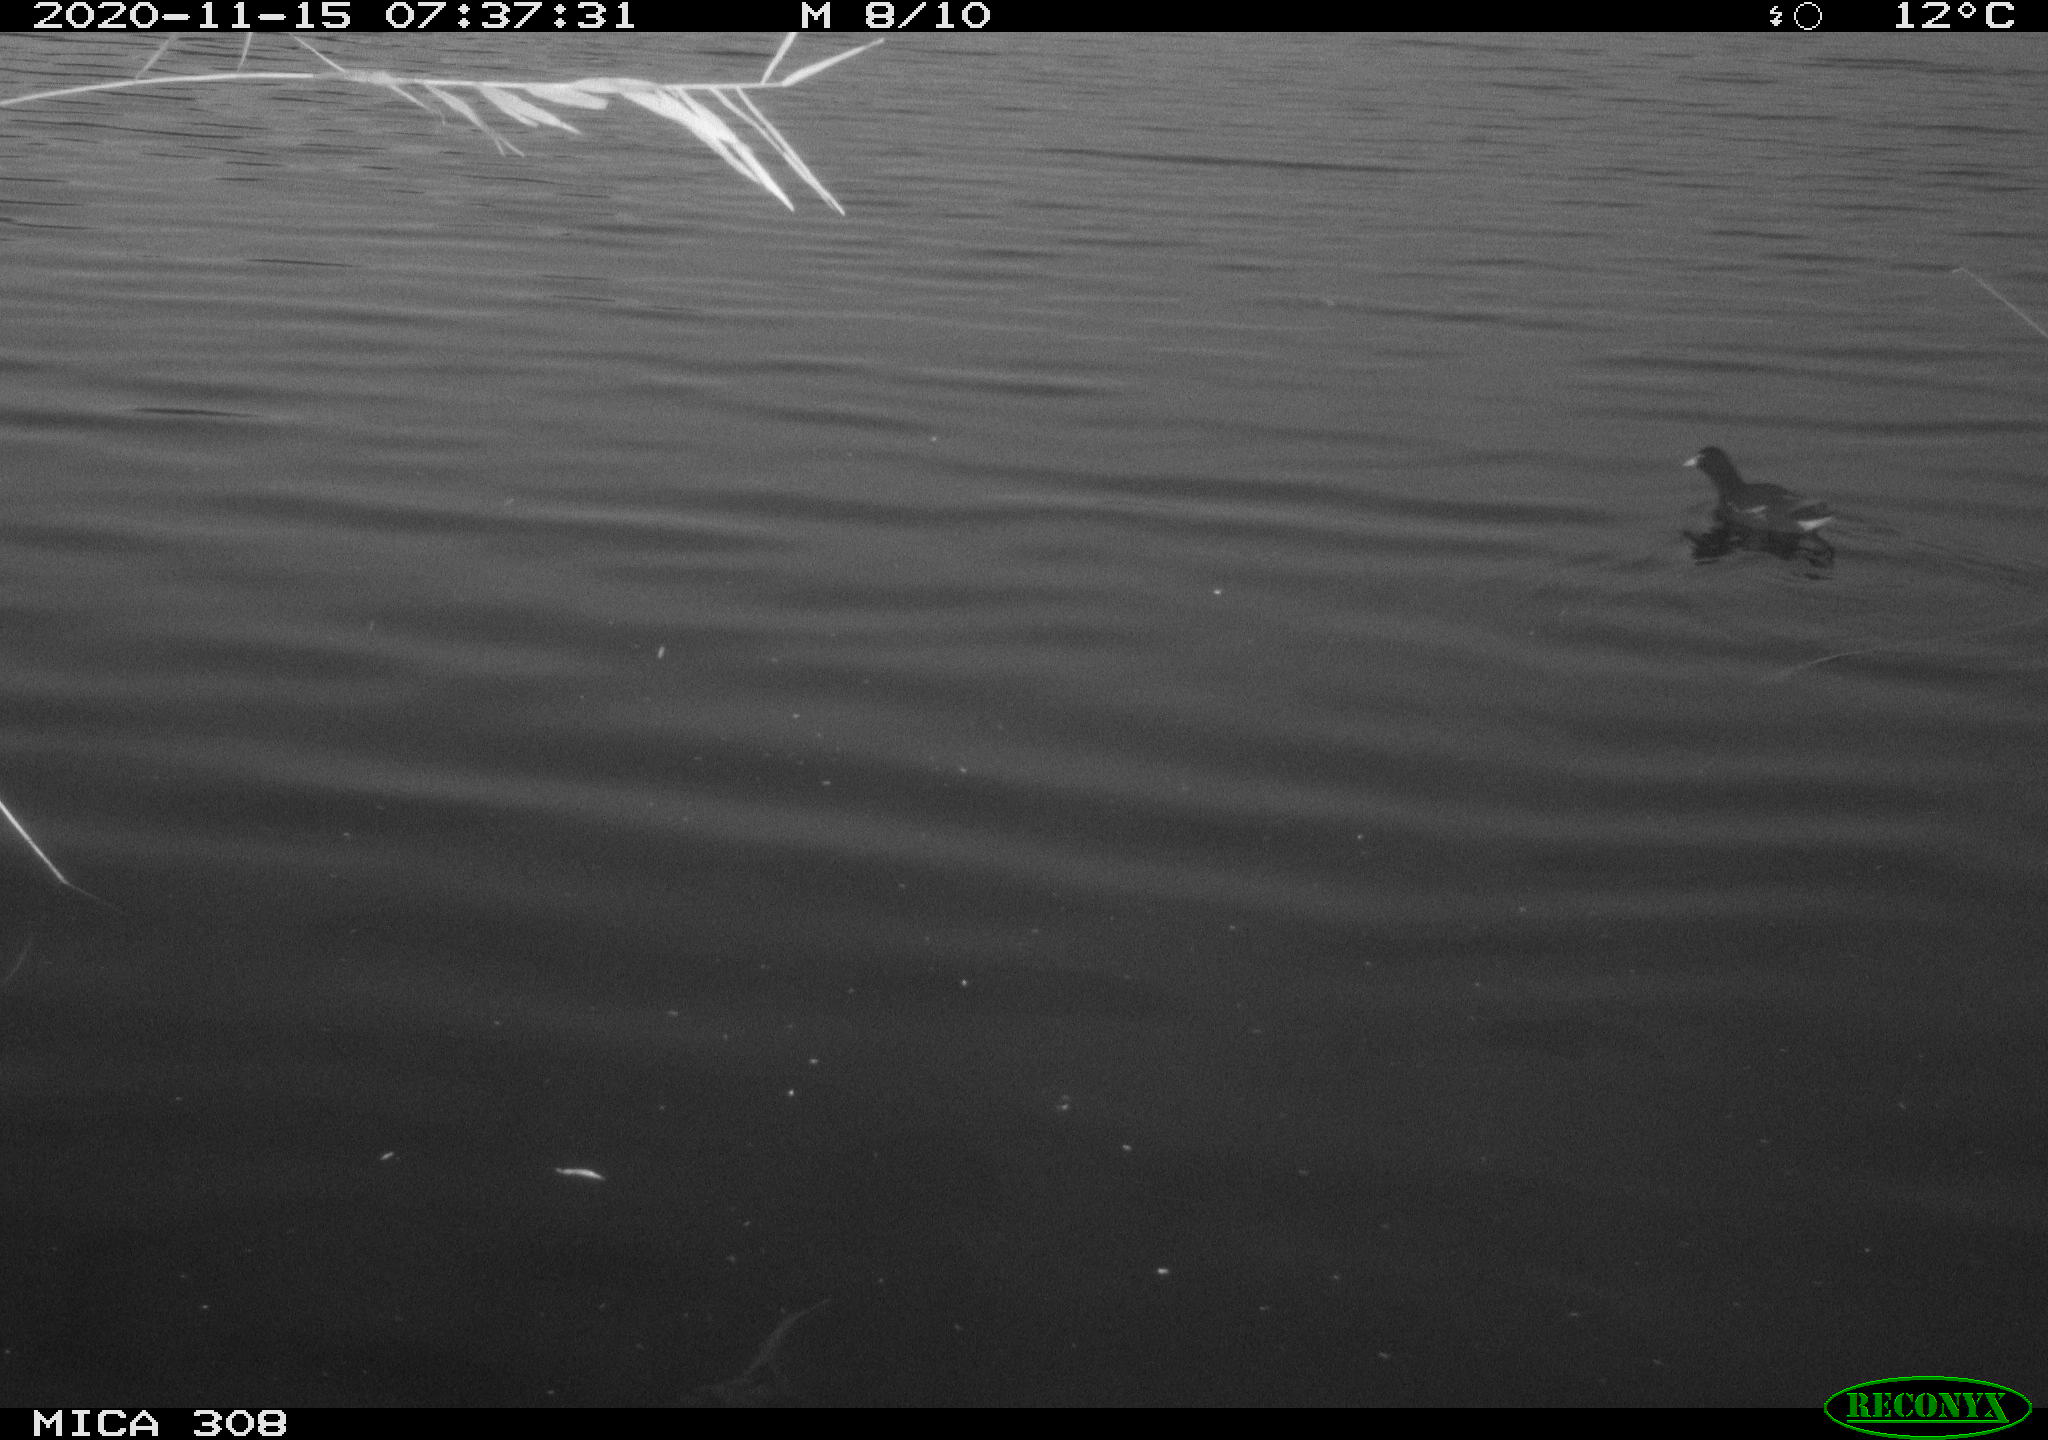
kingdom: Animalia
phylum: Chordata
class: Aves
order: Gruiformes
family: Rallidae
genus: Gallinula
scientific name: Gallinula chloropus
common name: Common moorhen
